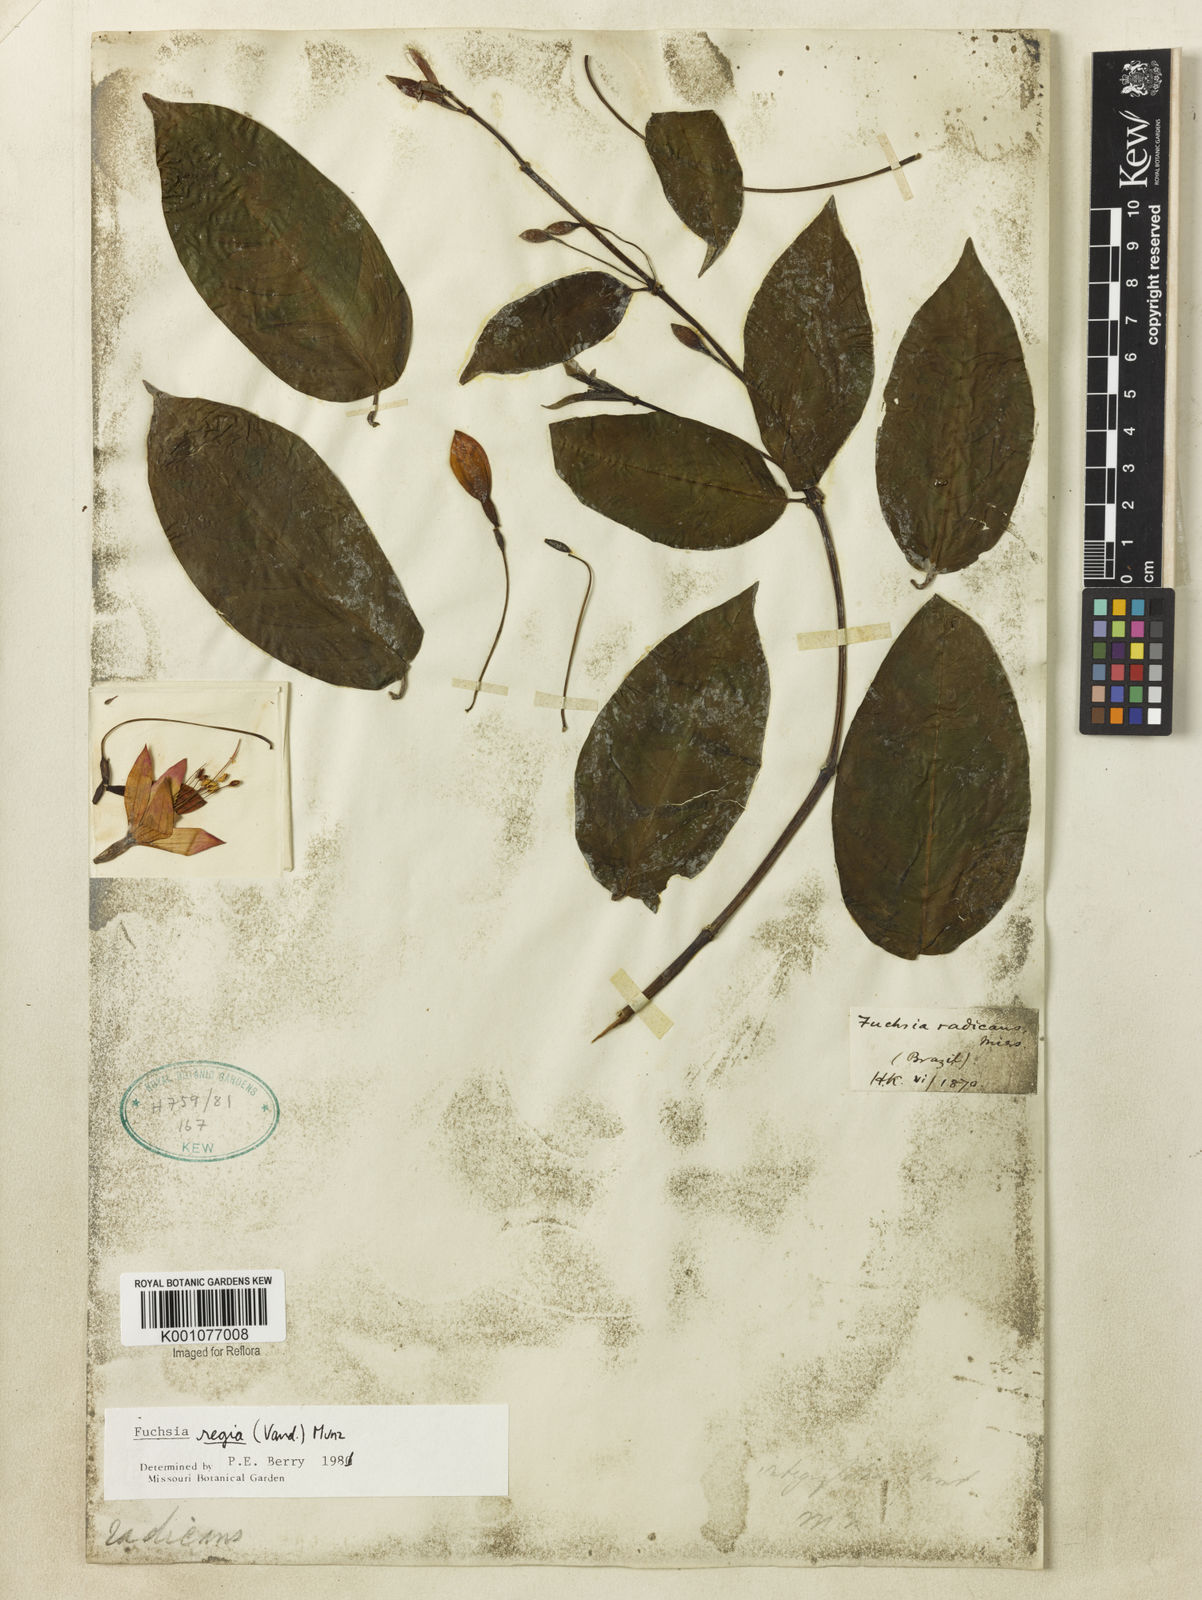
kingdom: Plantae
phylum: Tracheophyta
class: Magnoliopsida
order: Myrtales
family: Onagraceae
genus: Fuchsia
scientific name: Fuchsia regia
